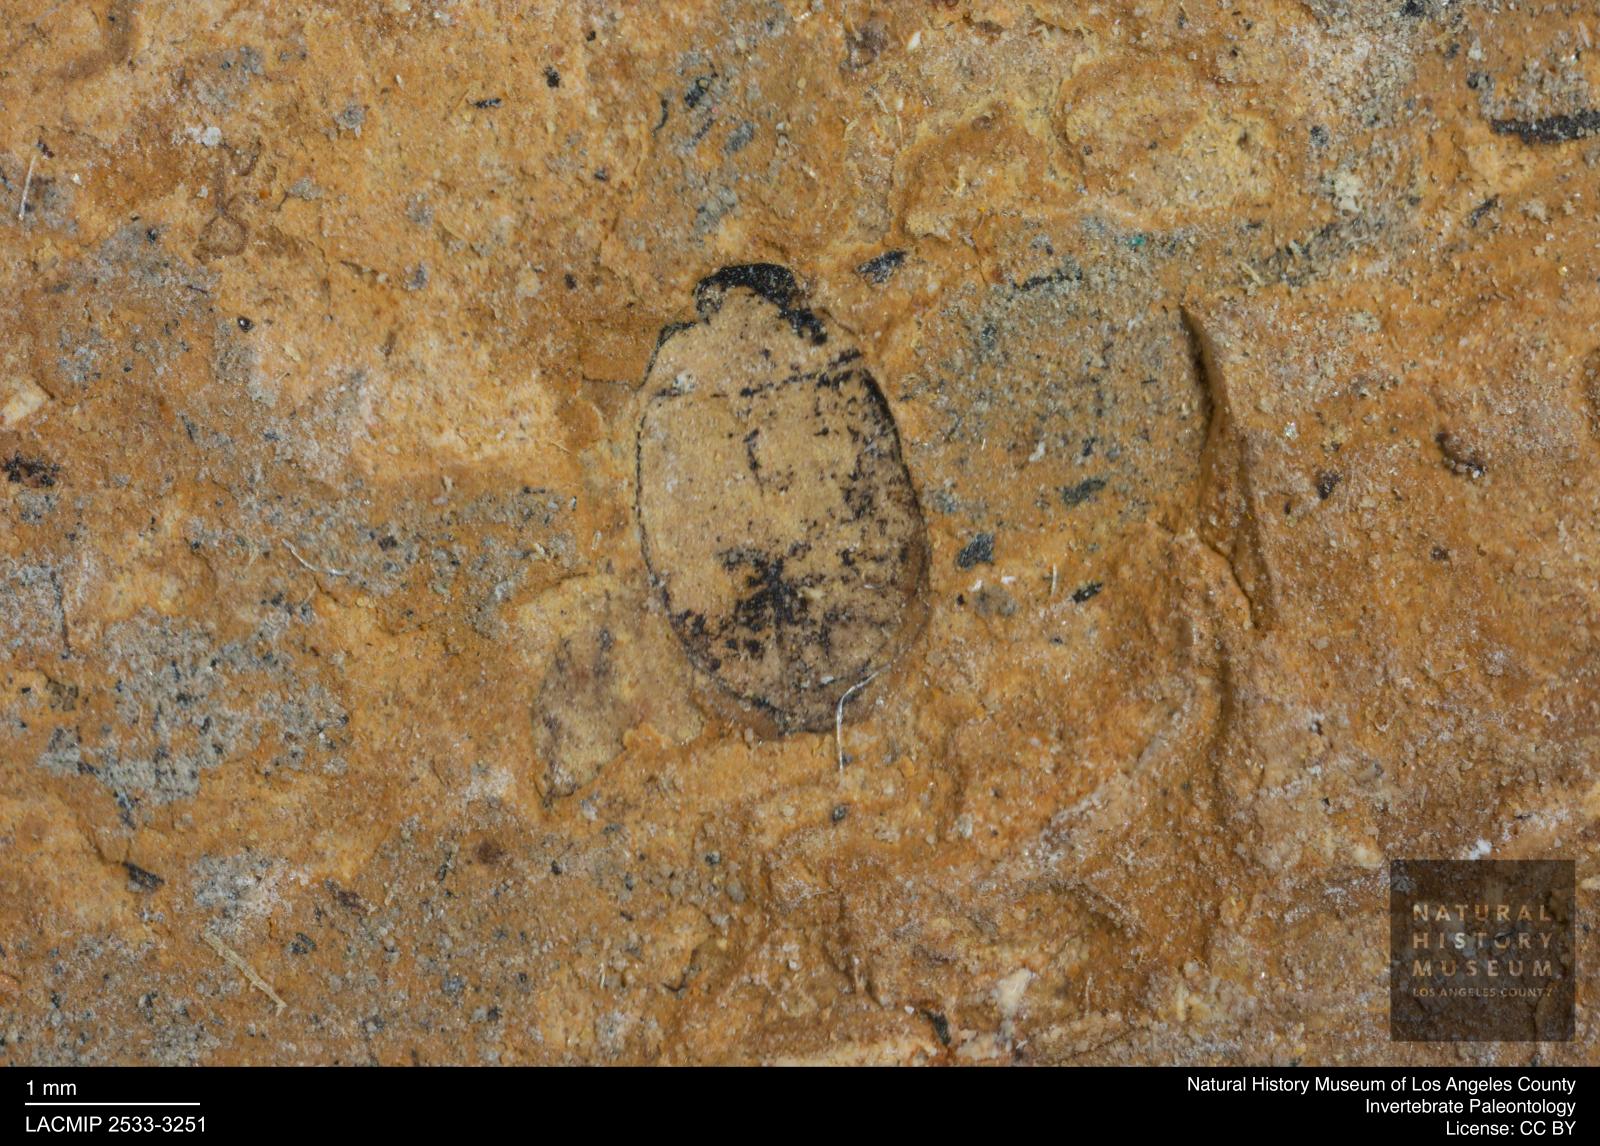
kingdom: Animalia
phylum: Arthropoda
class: Insecta
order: Coleoptera
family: Hydrophilidae
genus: Paracymus
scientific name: Paracymus excitatus
